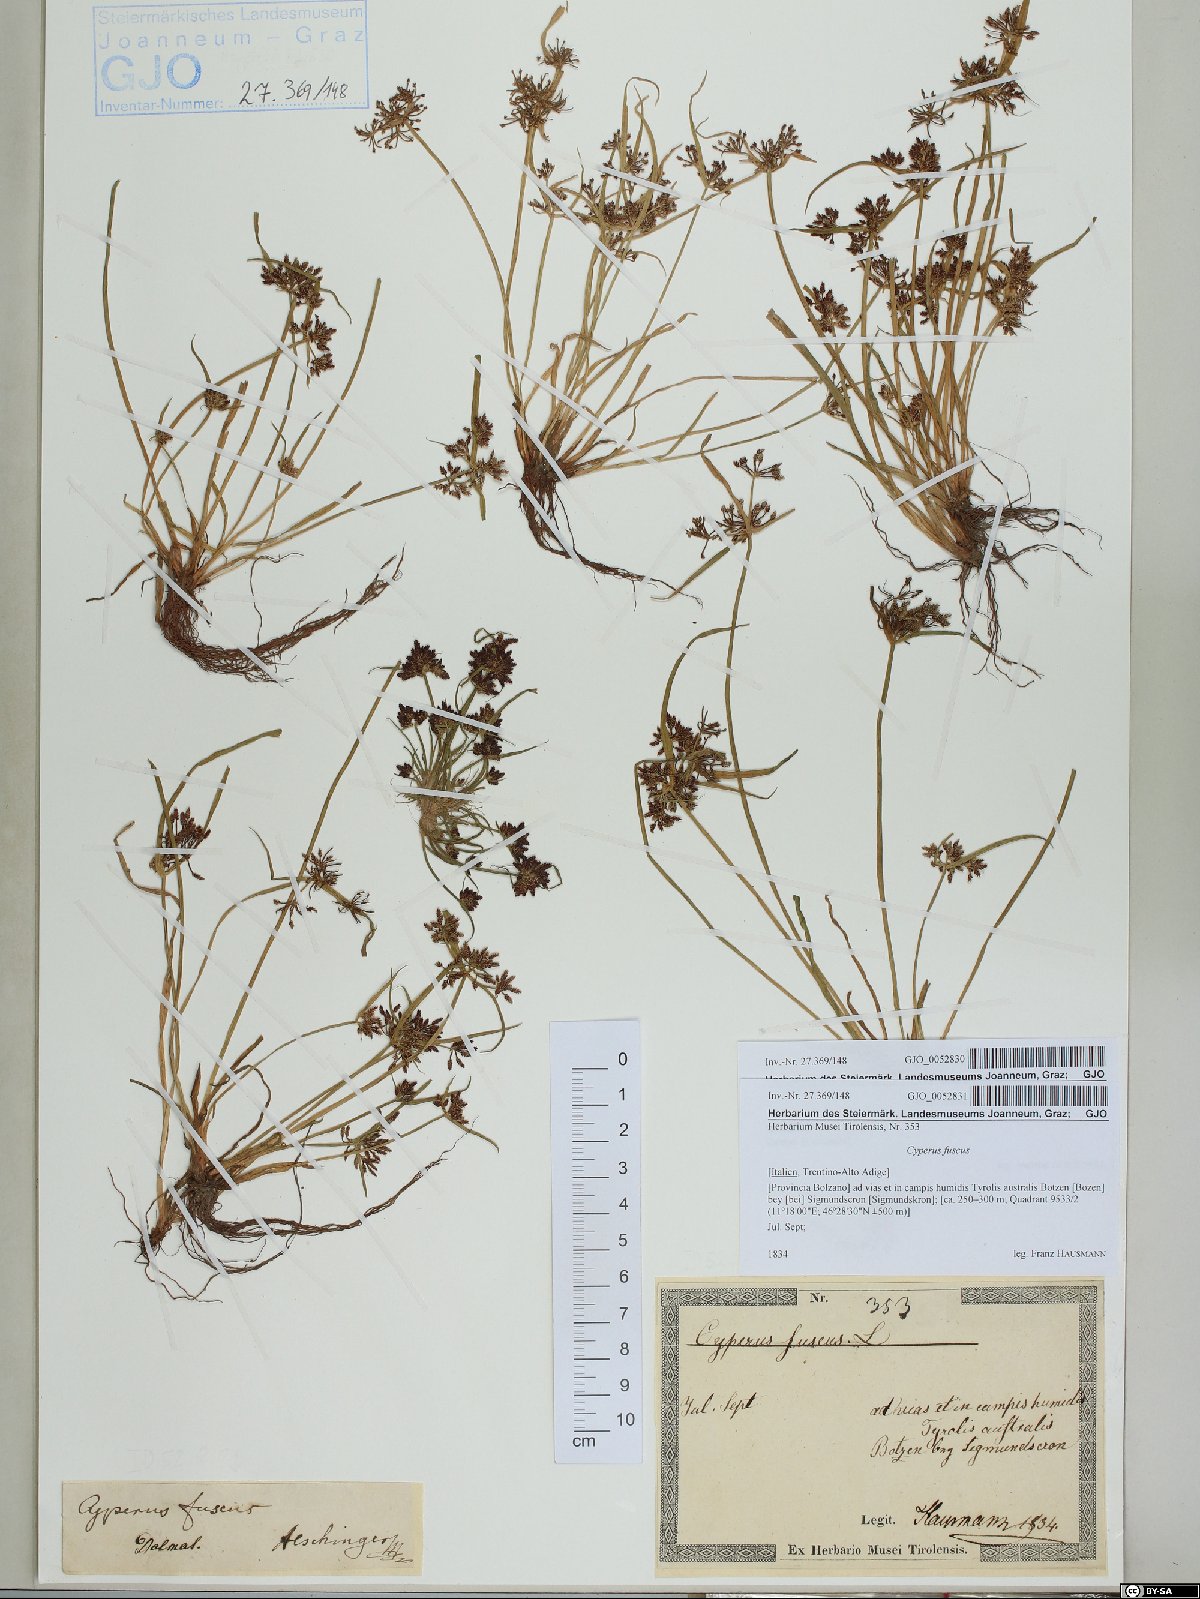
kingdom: Plantae
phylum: Tracheophyta
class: Liliopsida
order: Poales
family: Cyperaceae
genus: Cyperus
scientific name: Cyperus fuscus
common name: Brown galingale
